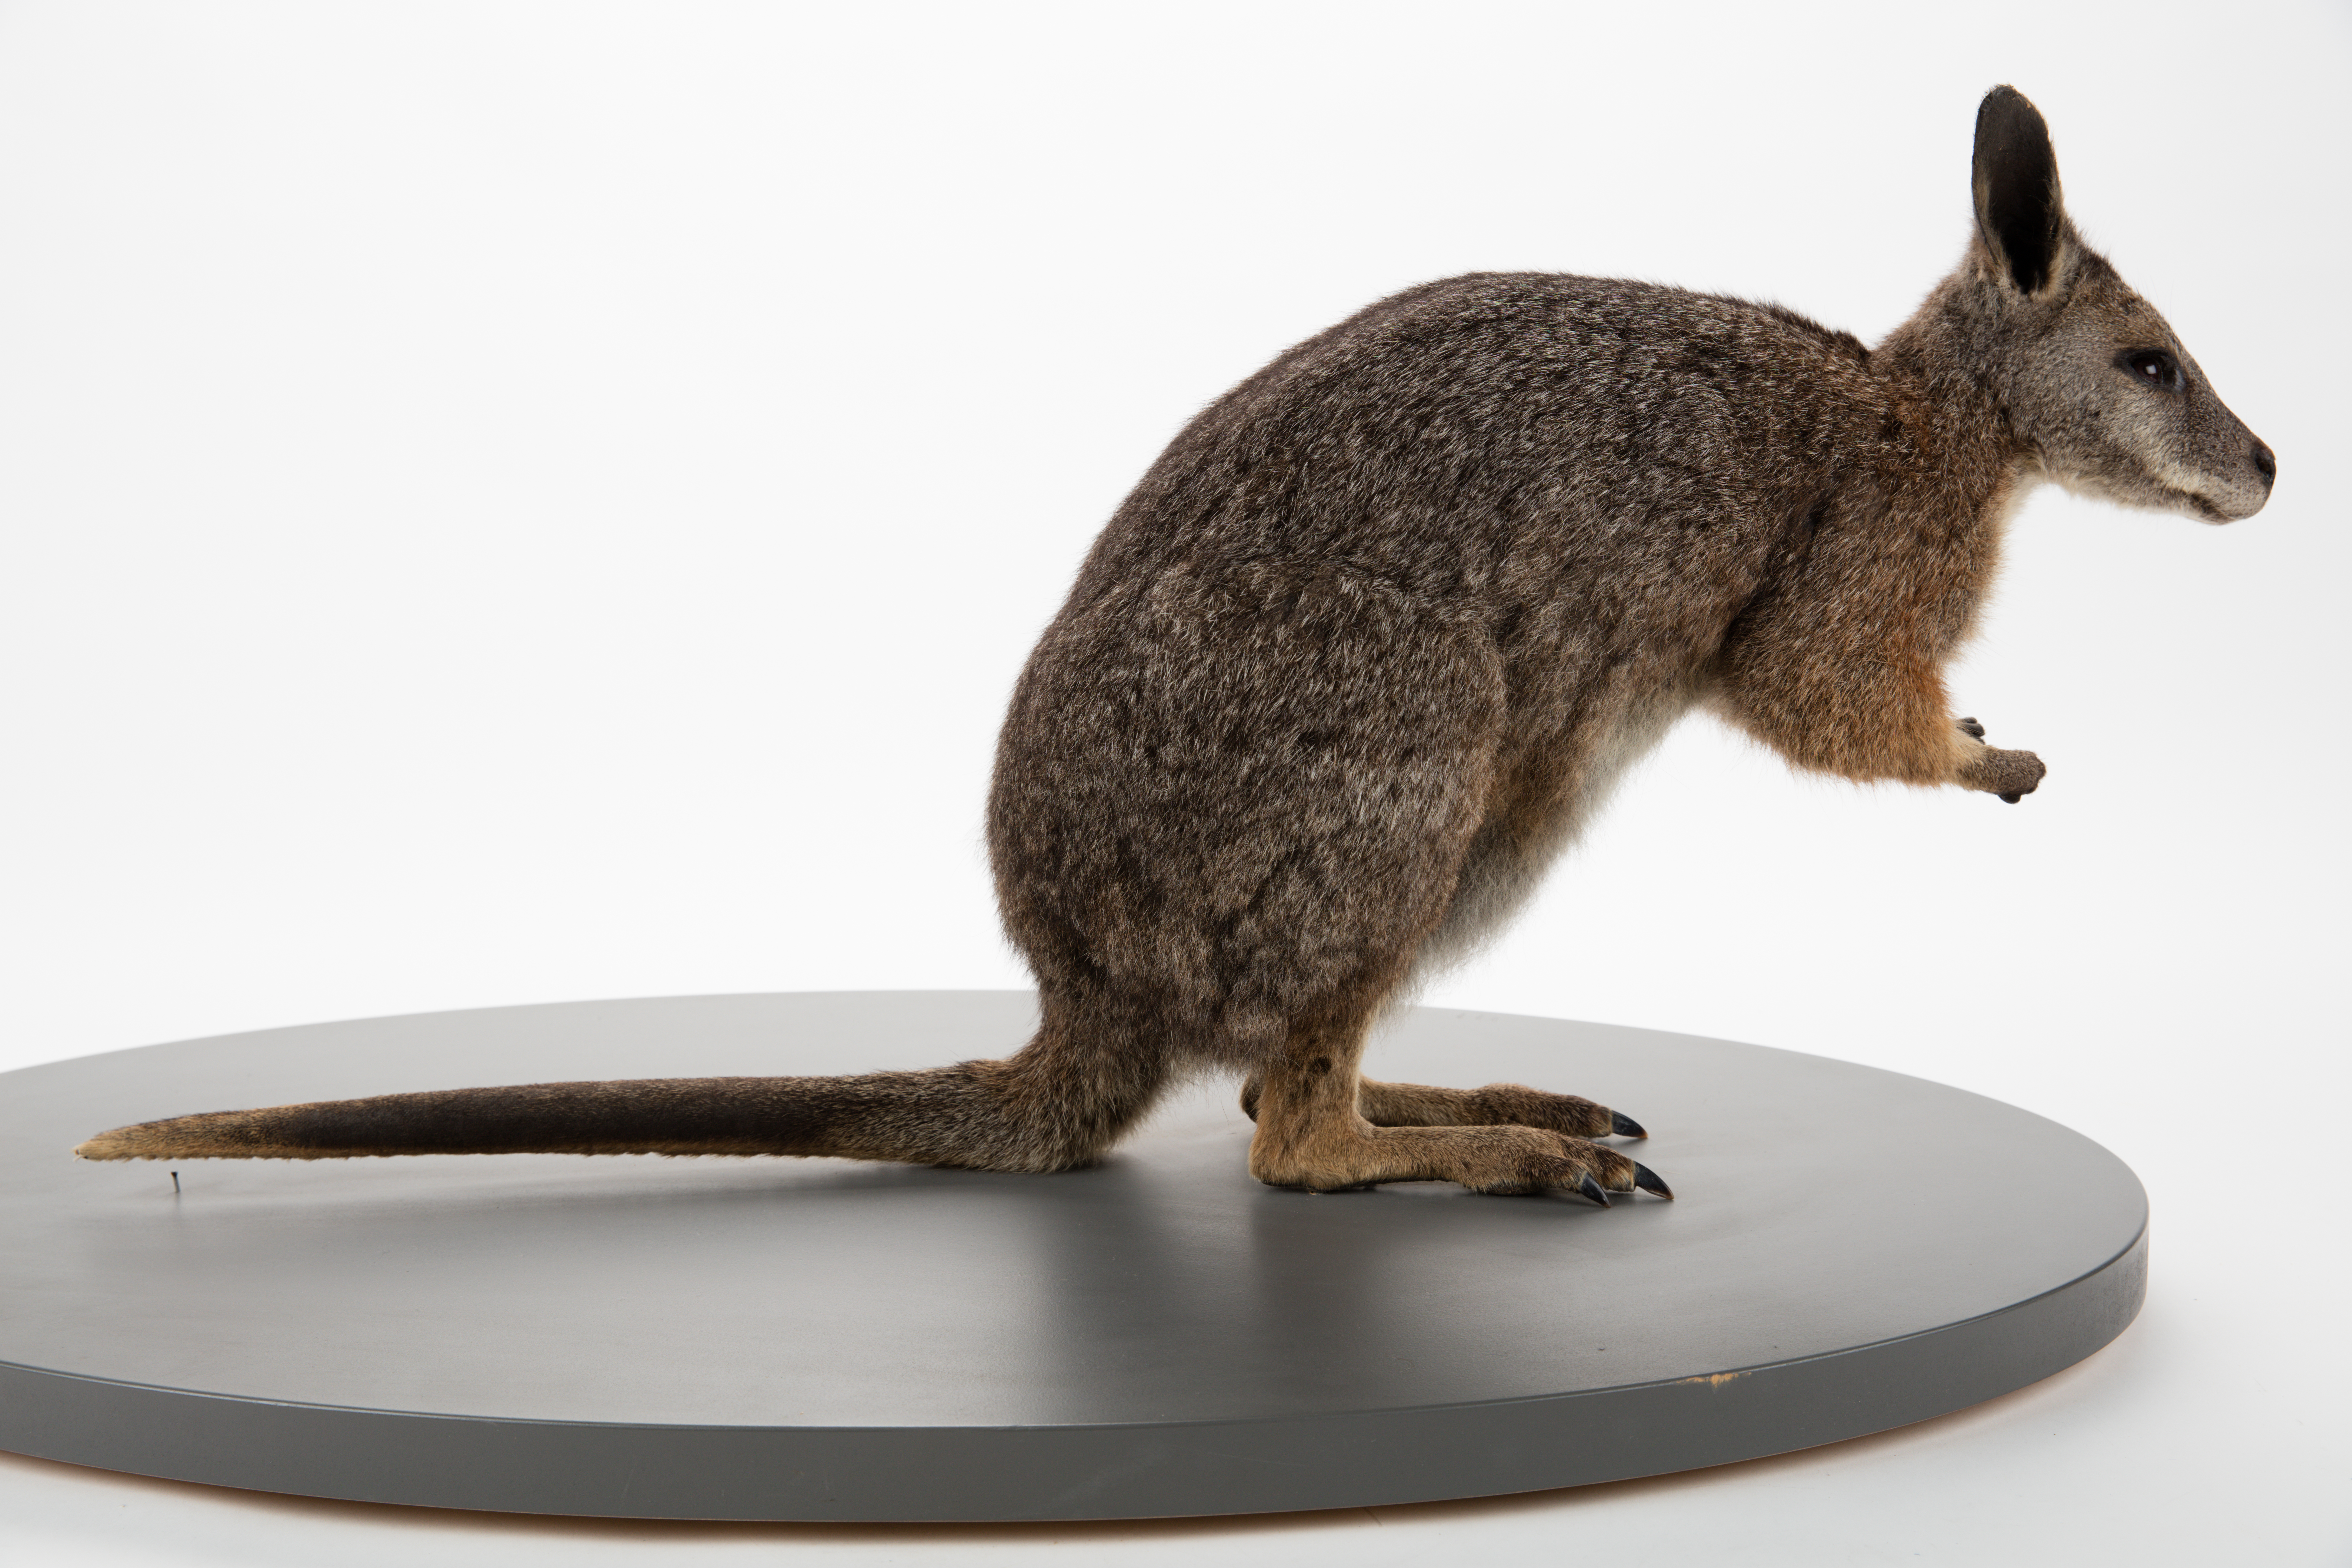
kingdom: Animalia
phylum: Chordata
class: Mammalia
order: Diprotodontia
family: Macropodidae
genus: Macropus
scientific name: Macropus eugenii
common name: Tammar wallaby
